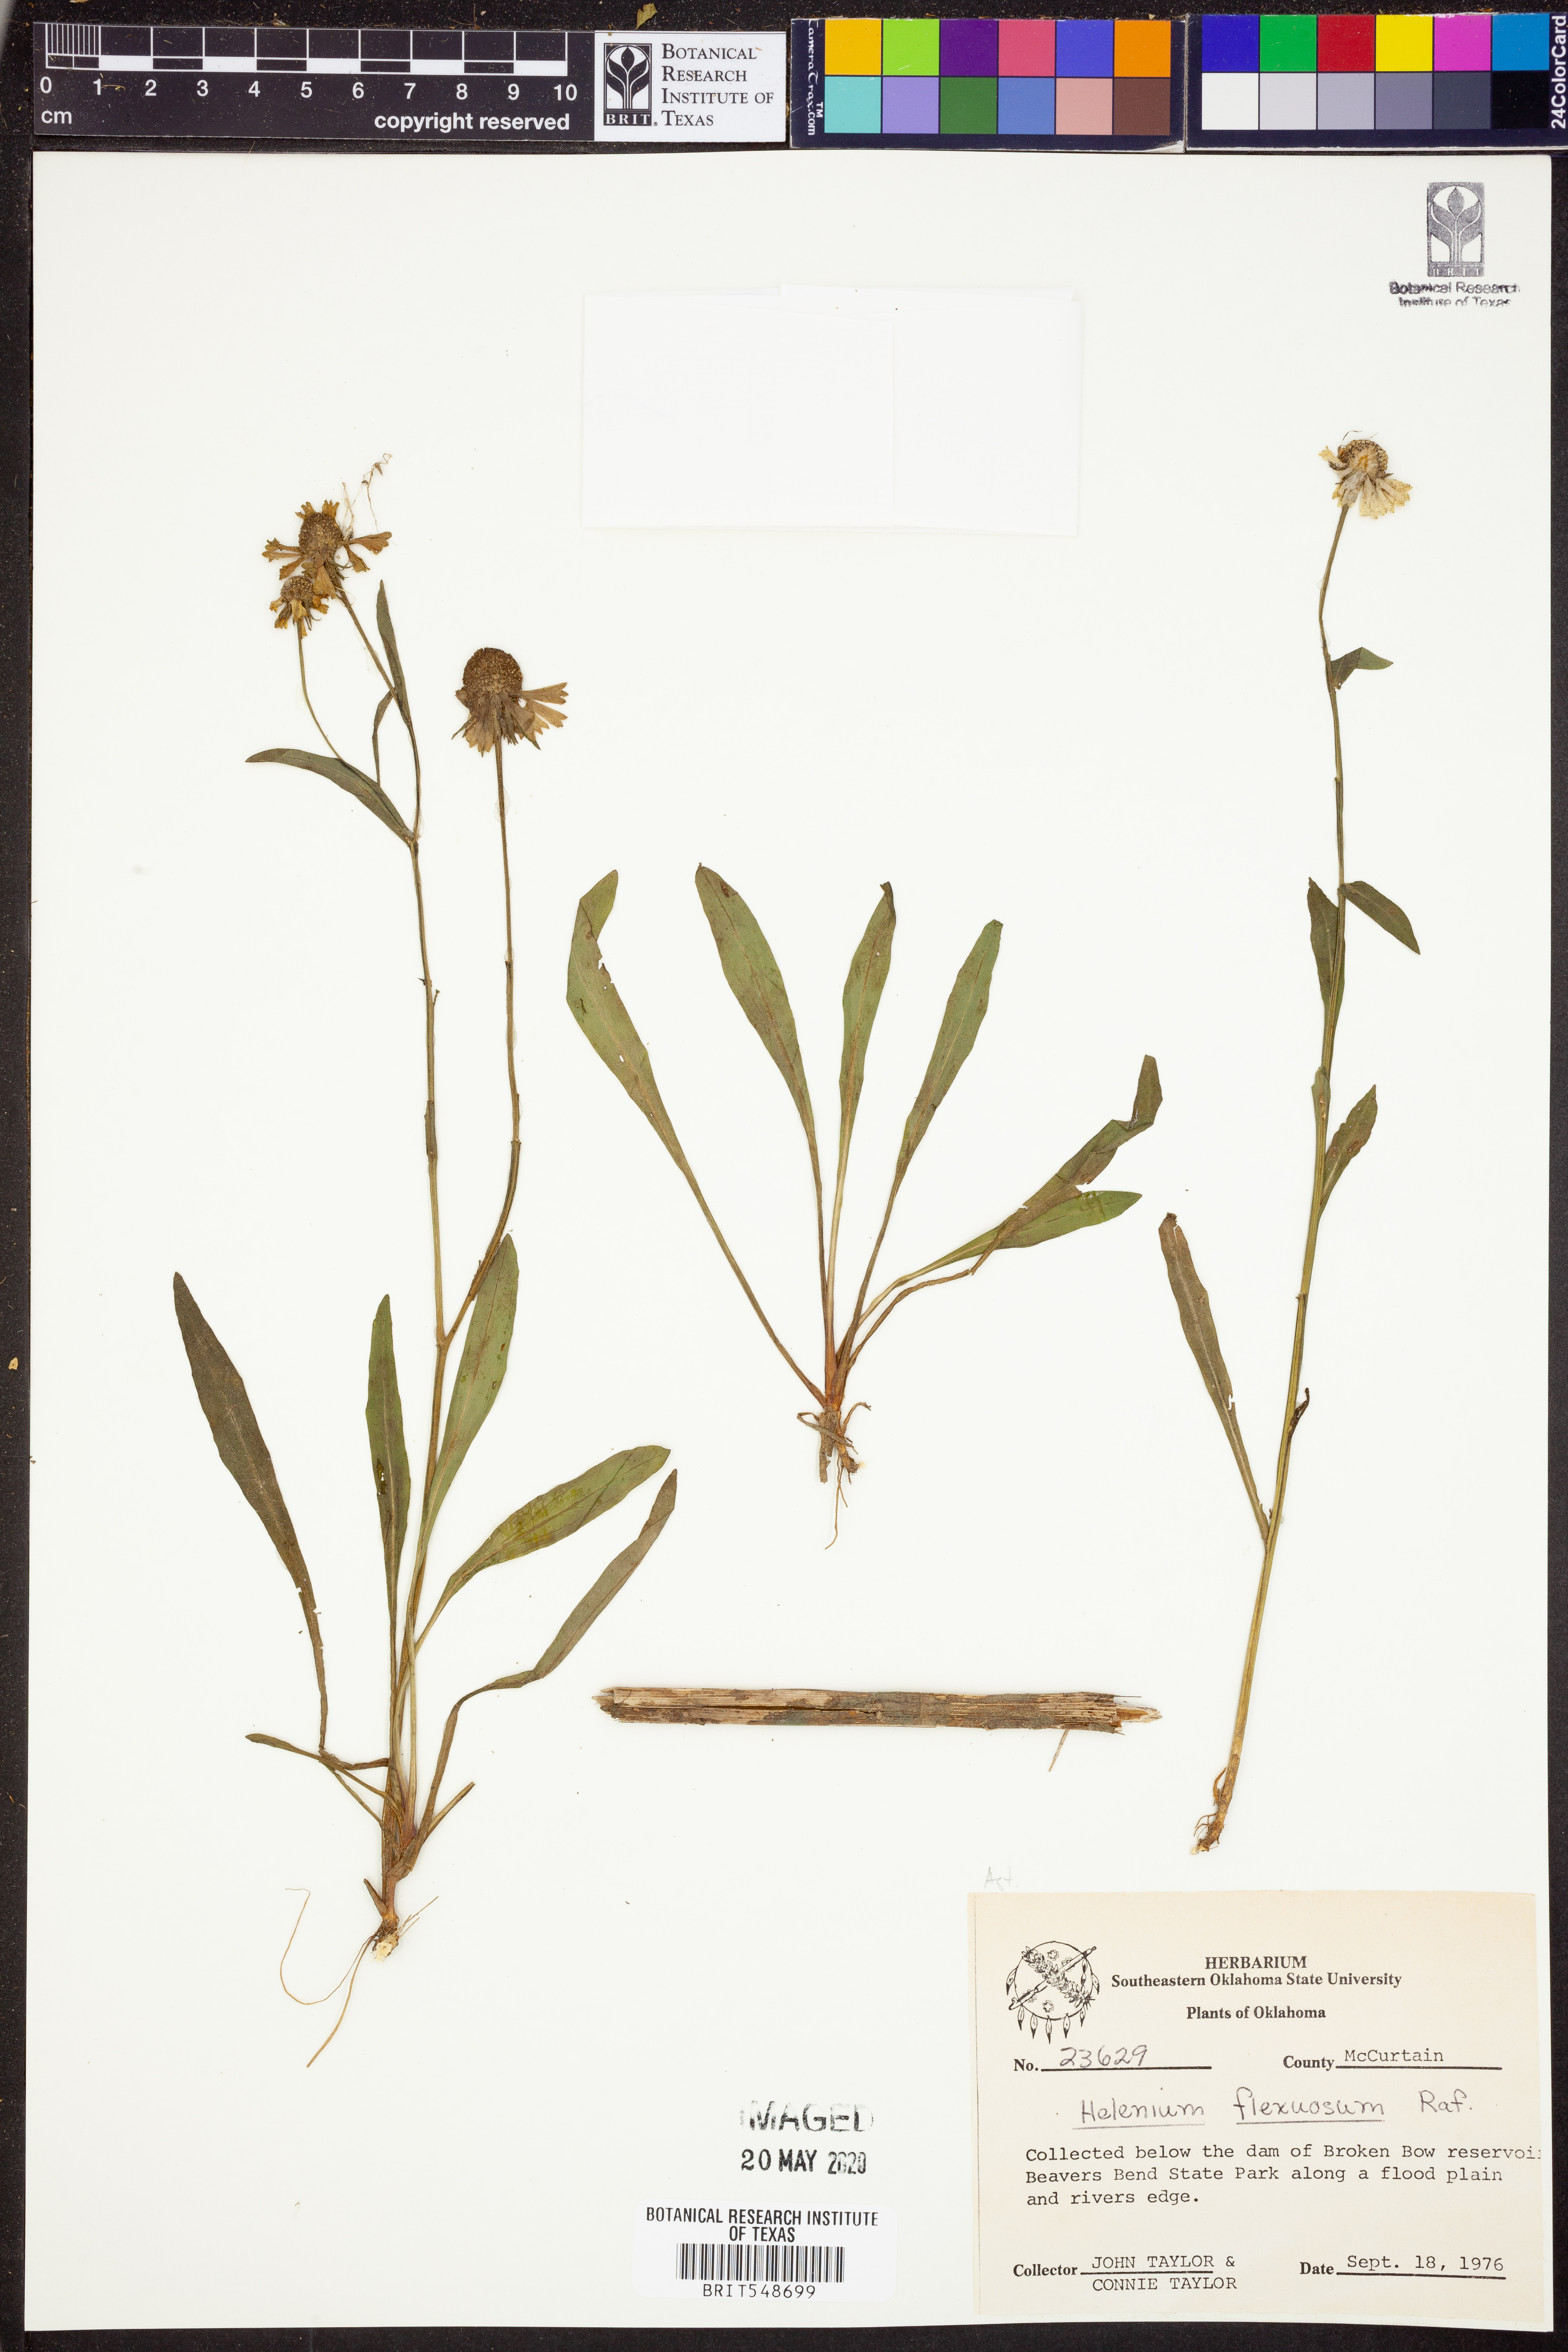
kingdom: Plantae
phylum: Tracheophyta
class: Magnoliopsida
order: Asterales
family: Asteraceae
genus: Helenium
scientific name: Helenium flexuosum
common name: Naked-flowered sneezeweed
